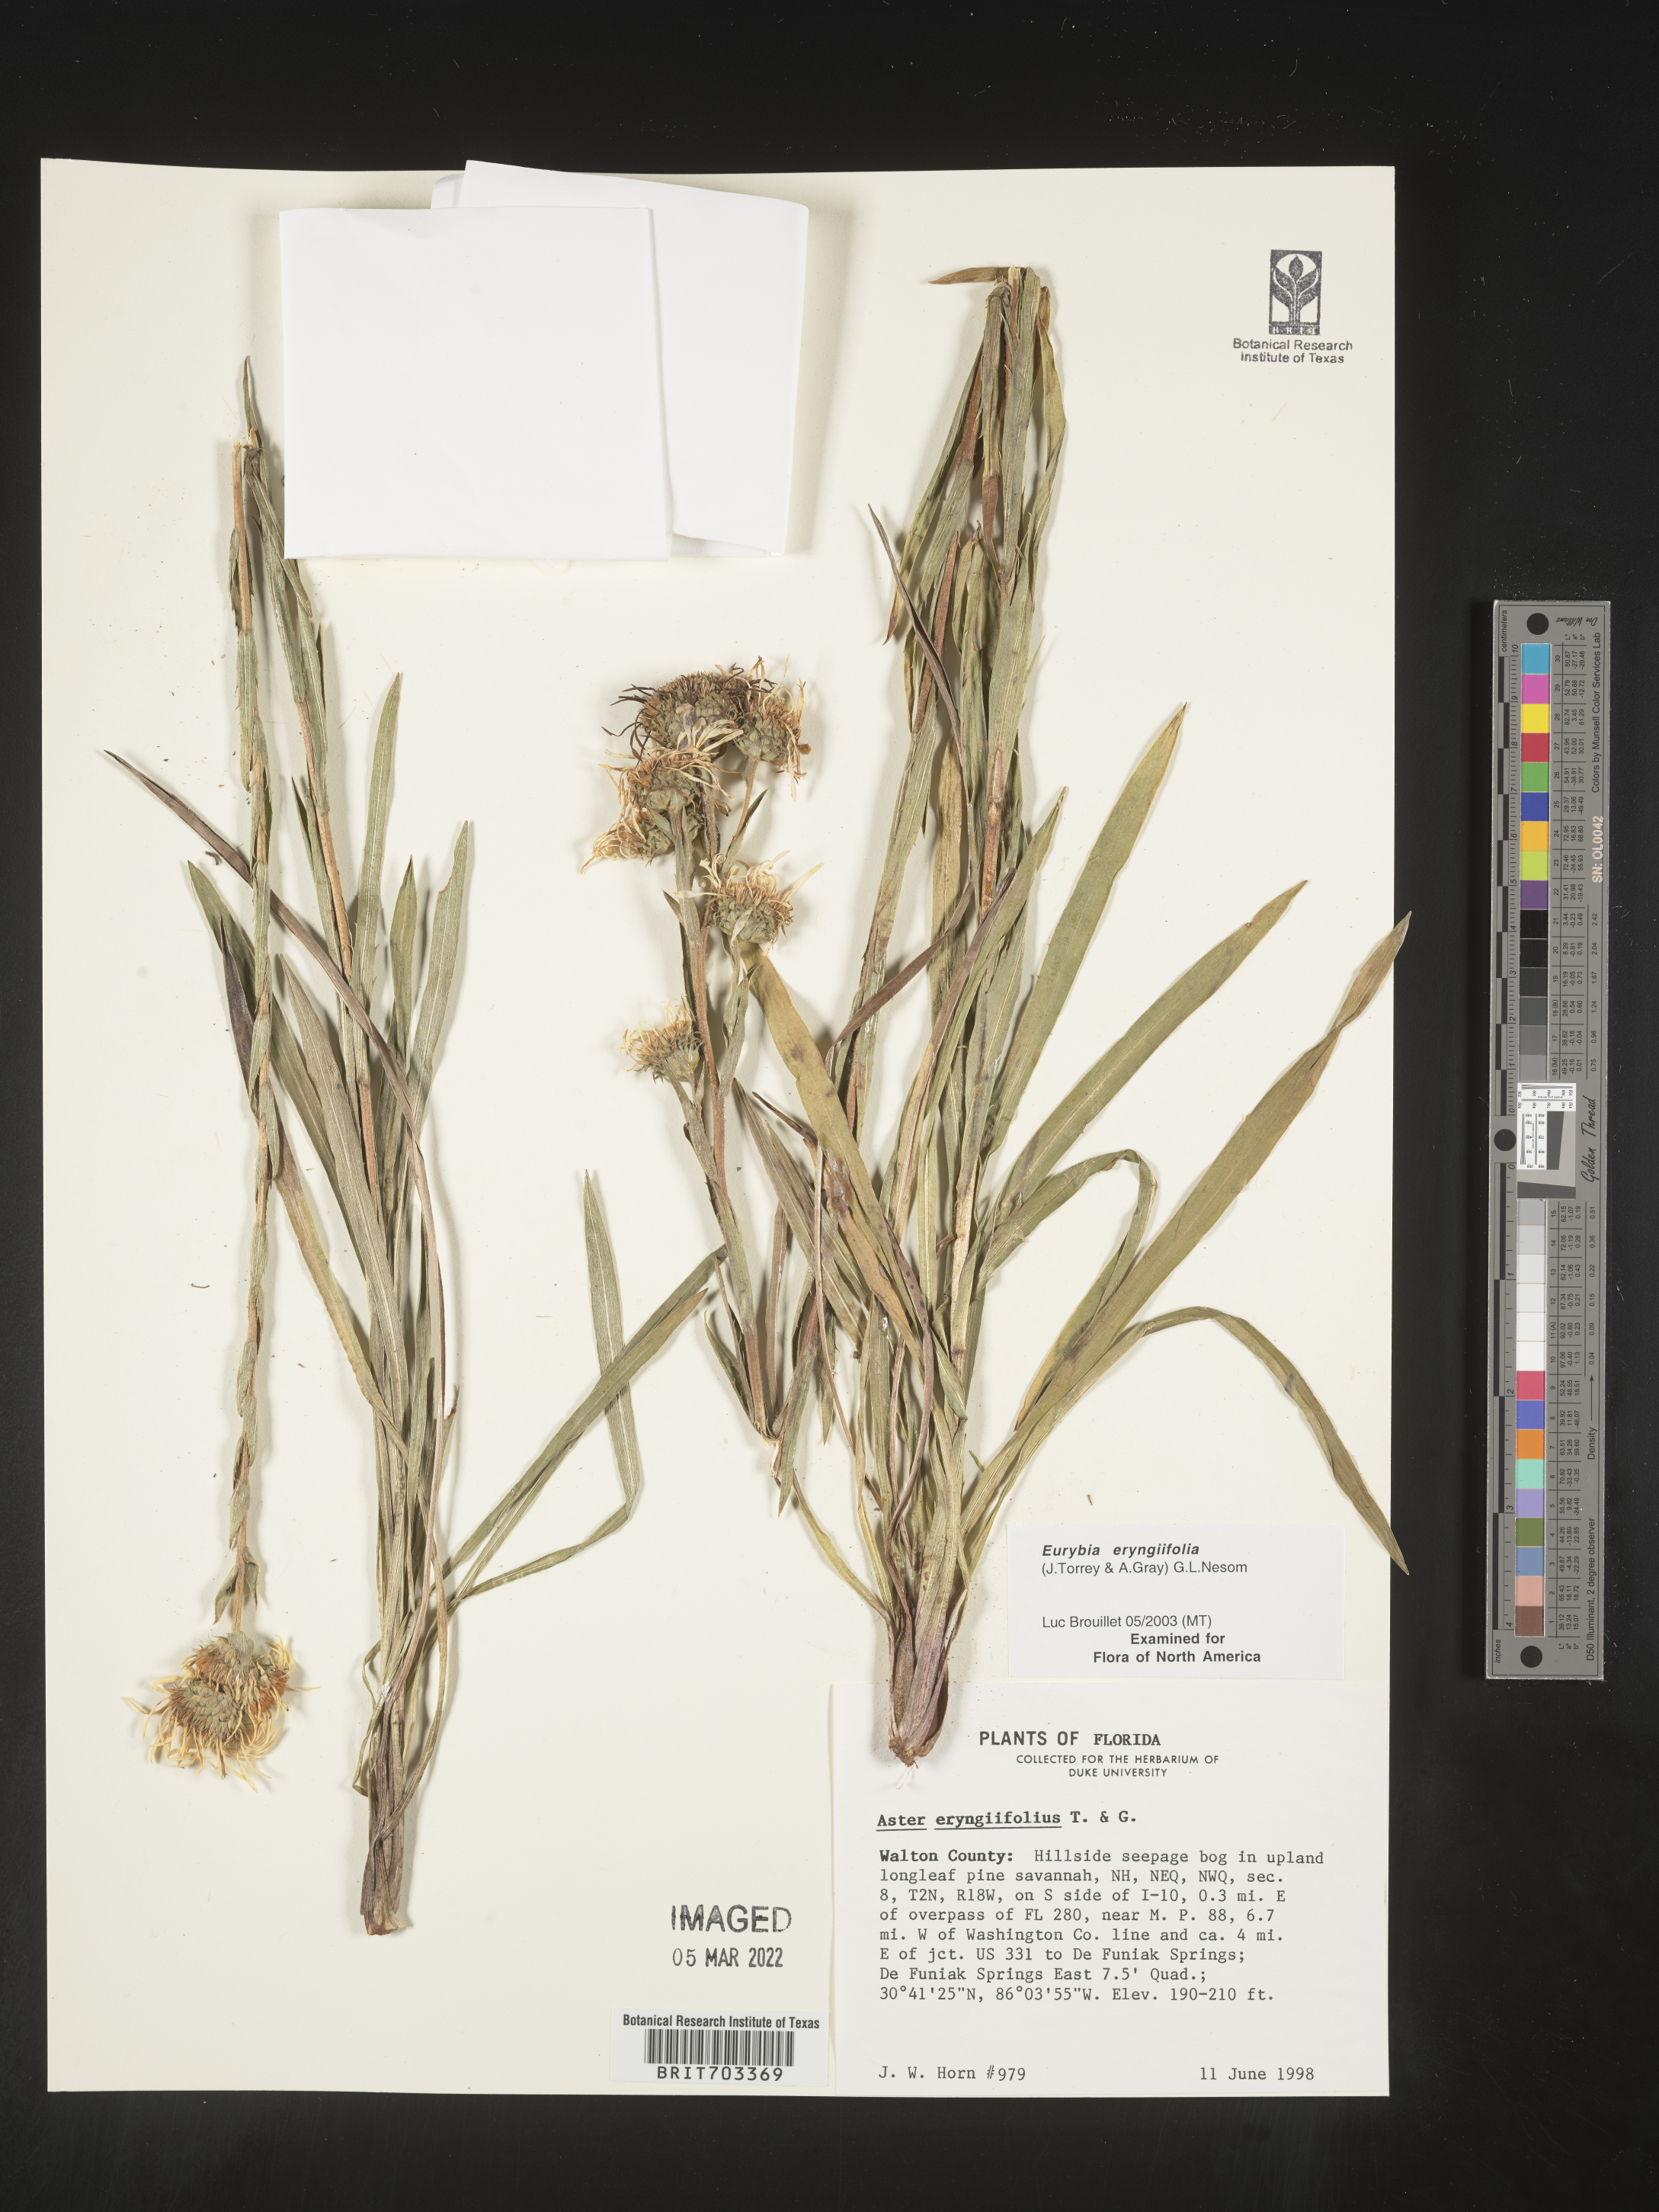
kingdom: Plantae
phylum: Tracheophyta
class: Magnoliopsida
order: Asterales
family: Asteraceae
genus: Eurybia
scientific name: Eurybia eryngiifolia
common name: Thistle-leaf aster
